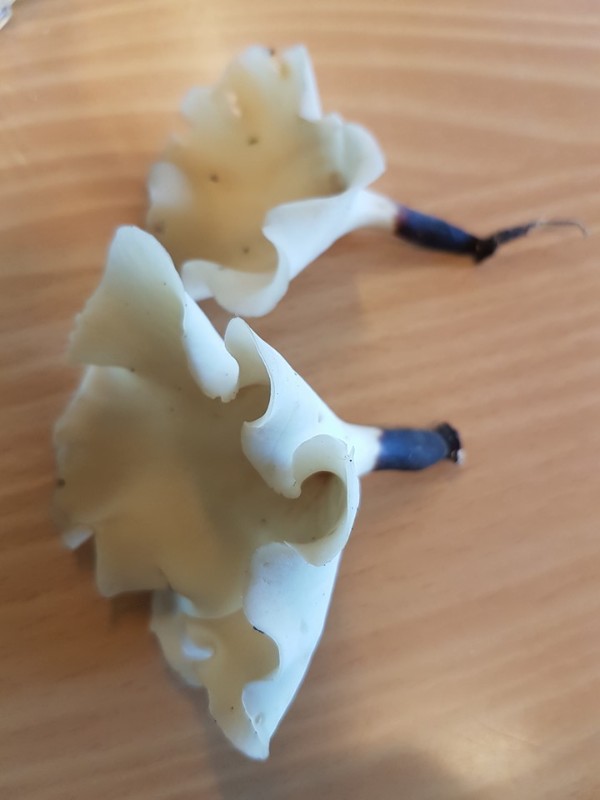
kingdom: Fungi
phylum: Basidiomycota
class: Agaricomycetes
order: Polyporales
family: Polyporaceae
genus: Picipes
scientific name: Picipes tubaeformis
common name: trompet-stilkporesvamp
